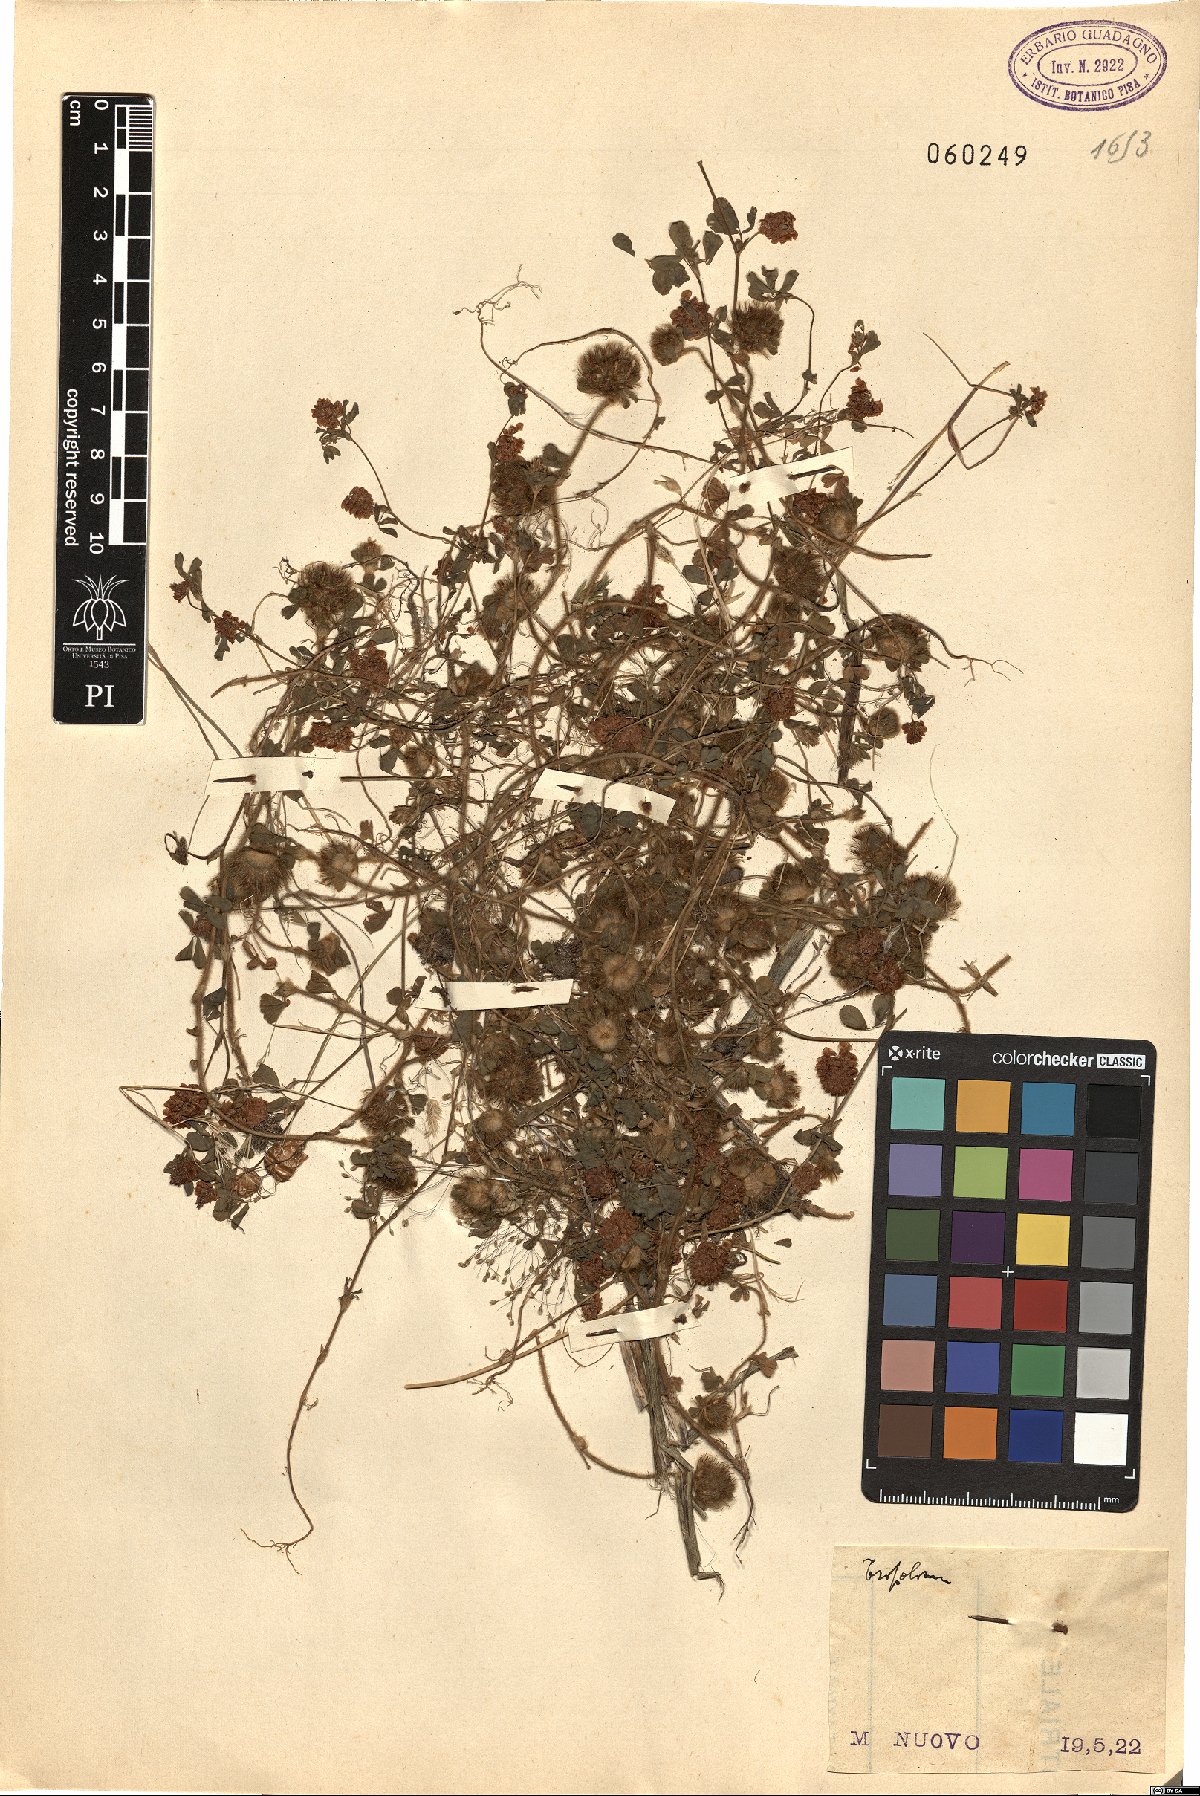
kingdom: Plantae
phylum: Tracheophyta
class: Magnoliopsida
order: Fabales
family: Fabaceae
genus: Trifolium
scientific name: Trifolium
